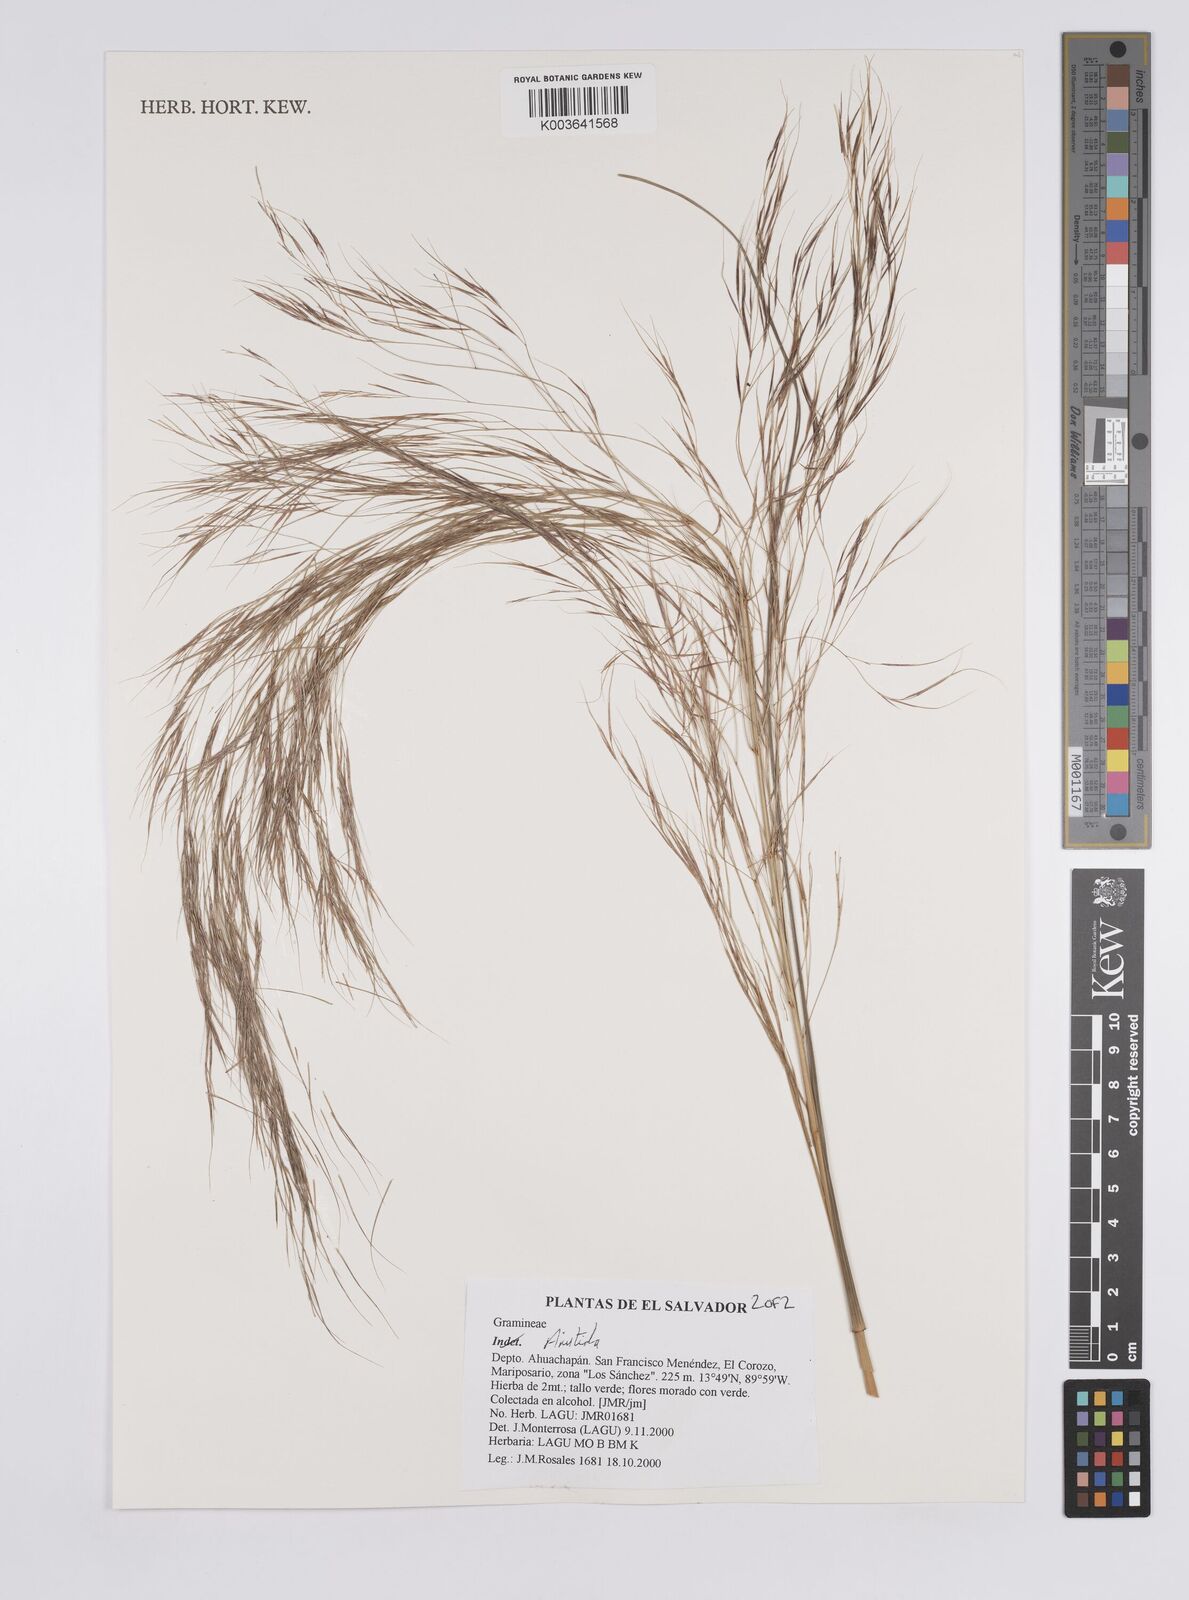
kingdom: Plantae
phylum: Tracheophyta
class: Liliopsida
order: Poales
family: Poaceae
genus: Aristida
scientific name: Aristida
